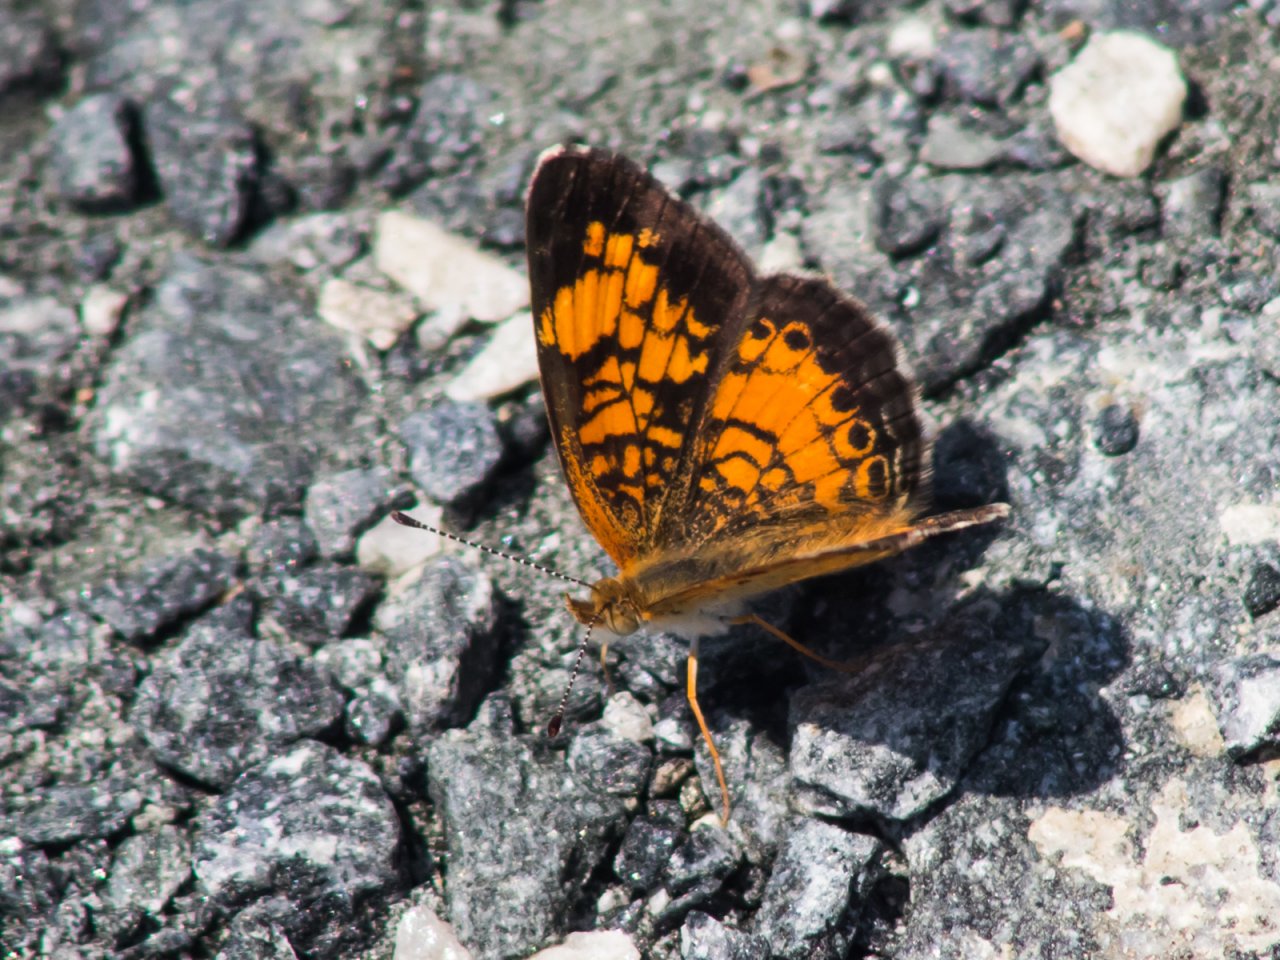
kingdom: Animalia
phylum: Arthropoda
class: Insecta
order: Lepidoptera
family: Nymphalidae
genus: Phyciodes
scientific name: Phyciodes tharos
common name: Pearl Crescent
